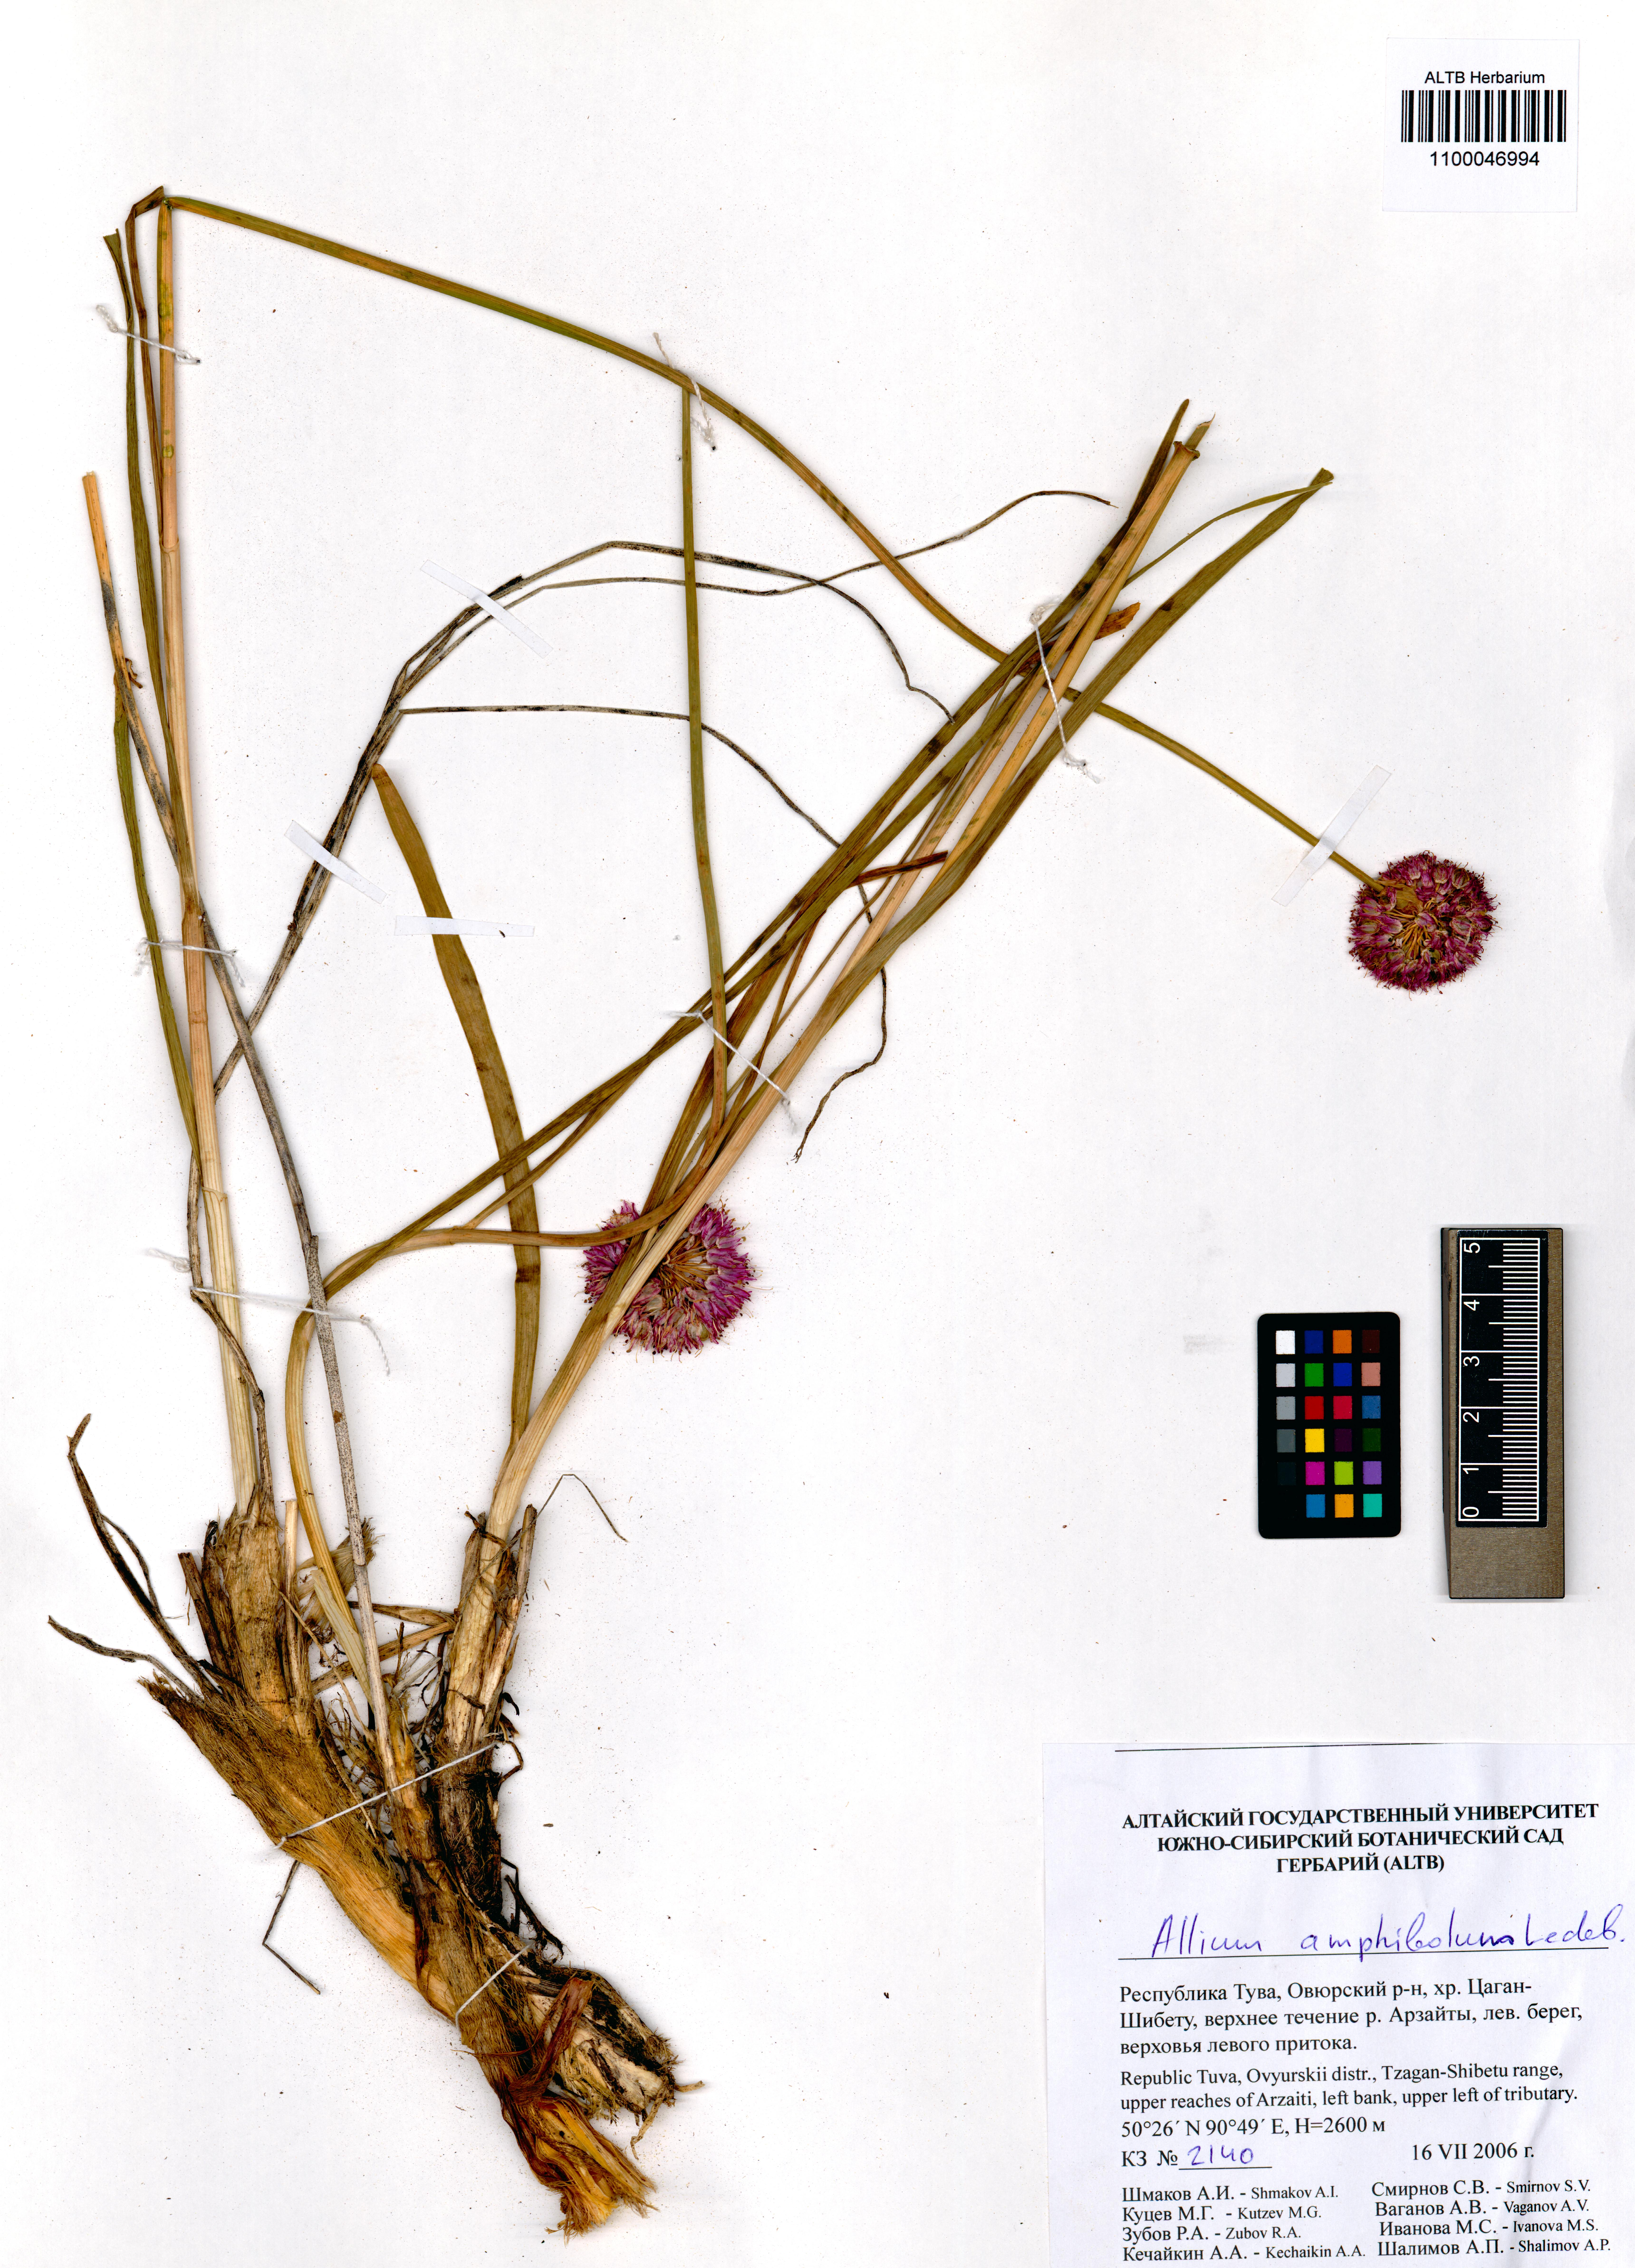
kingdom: Plantae
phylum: Tracheophyta
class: Liliopsida
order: Asparagales
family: Amaryllidaceae
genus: Allium
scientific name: Allium amphibolum
